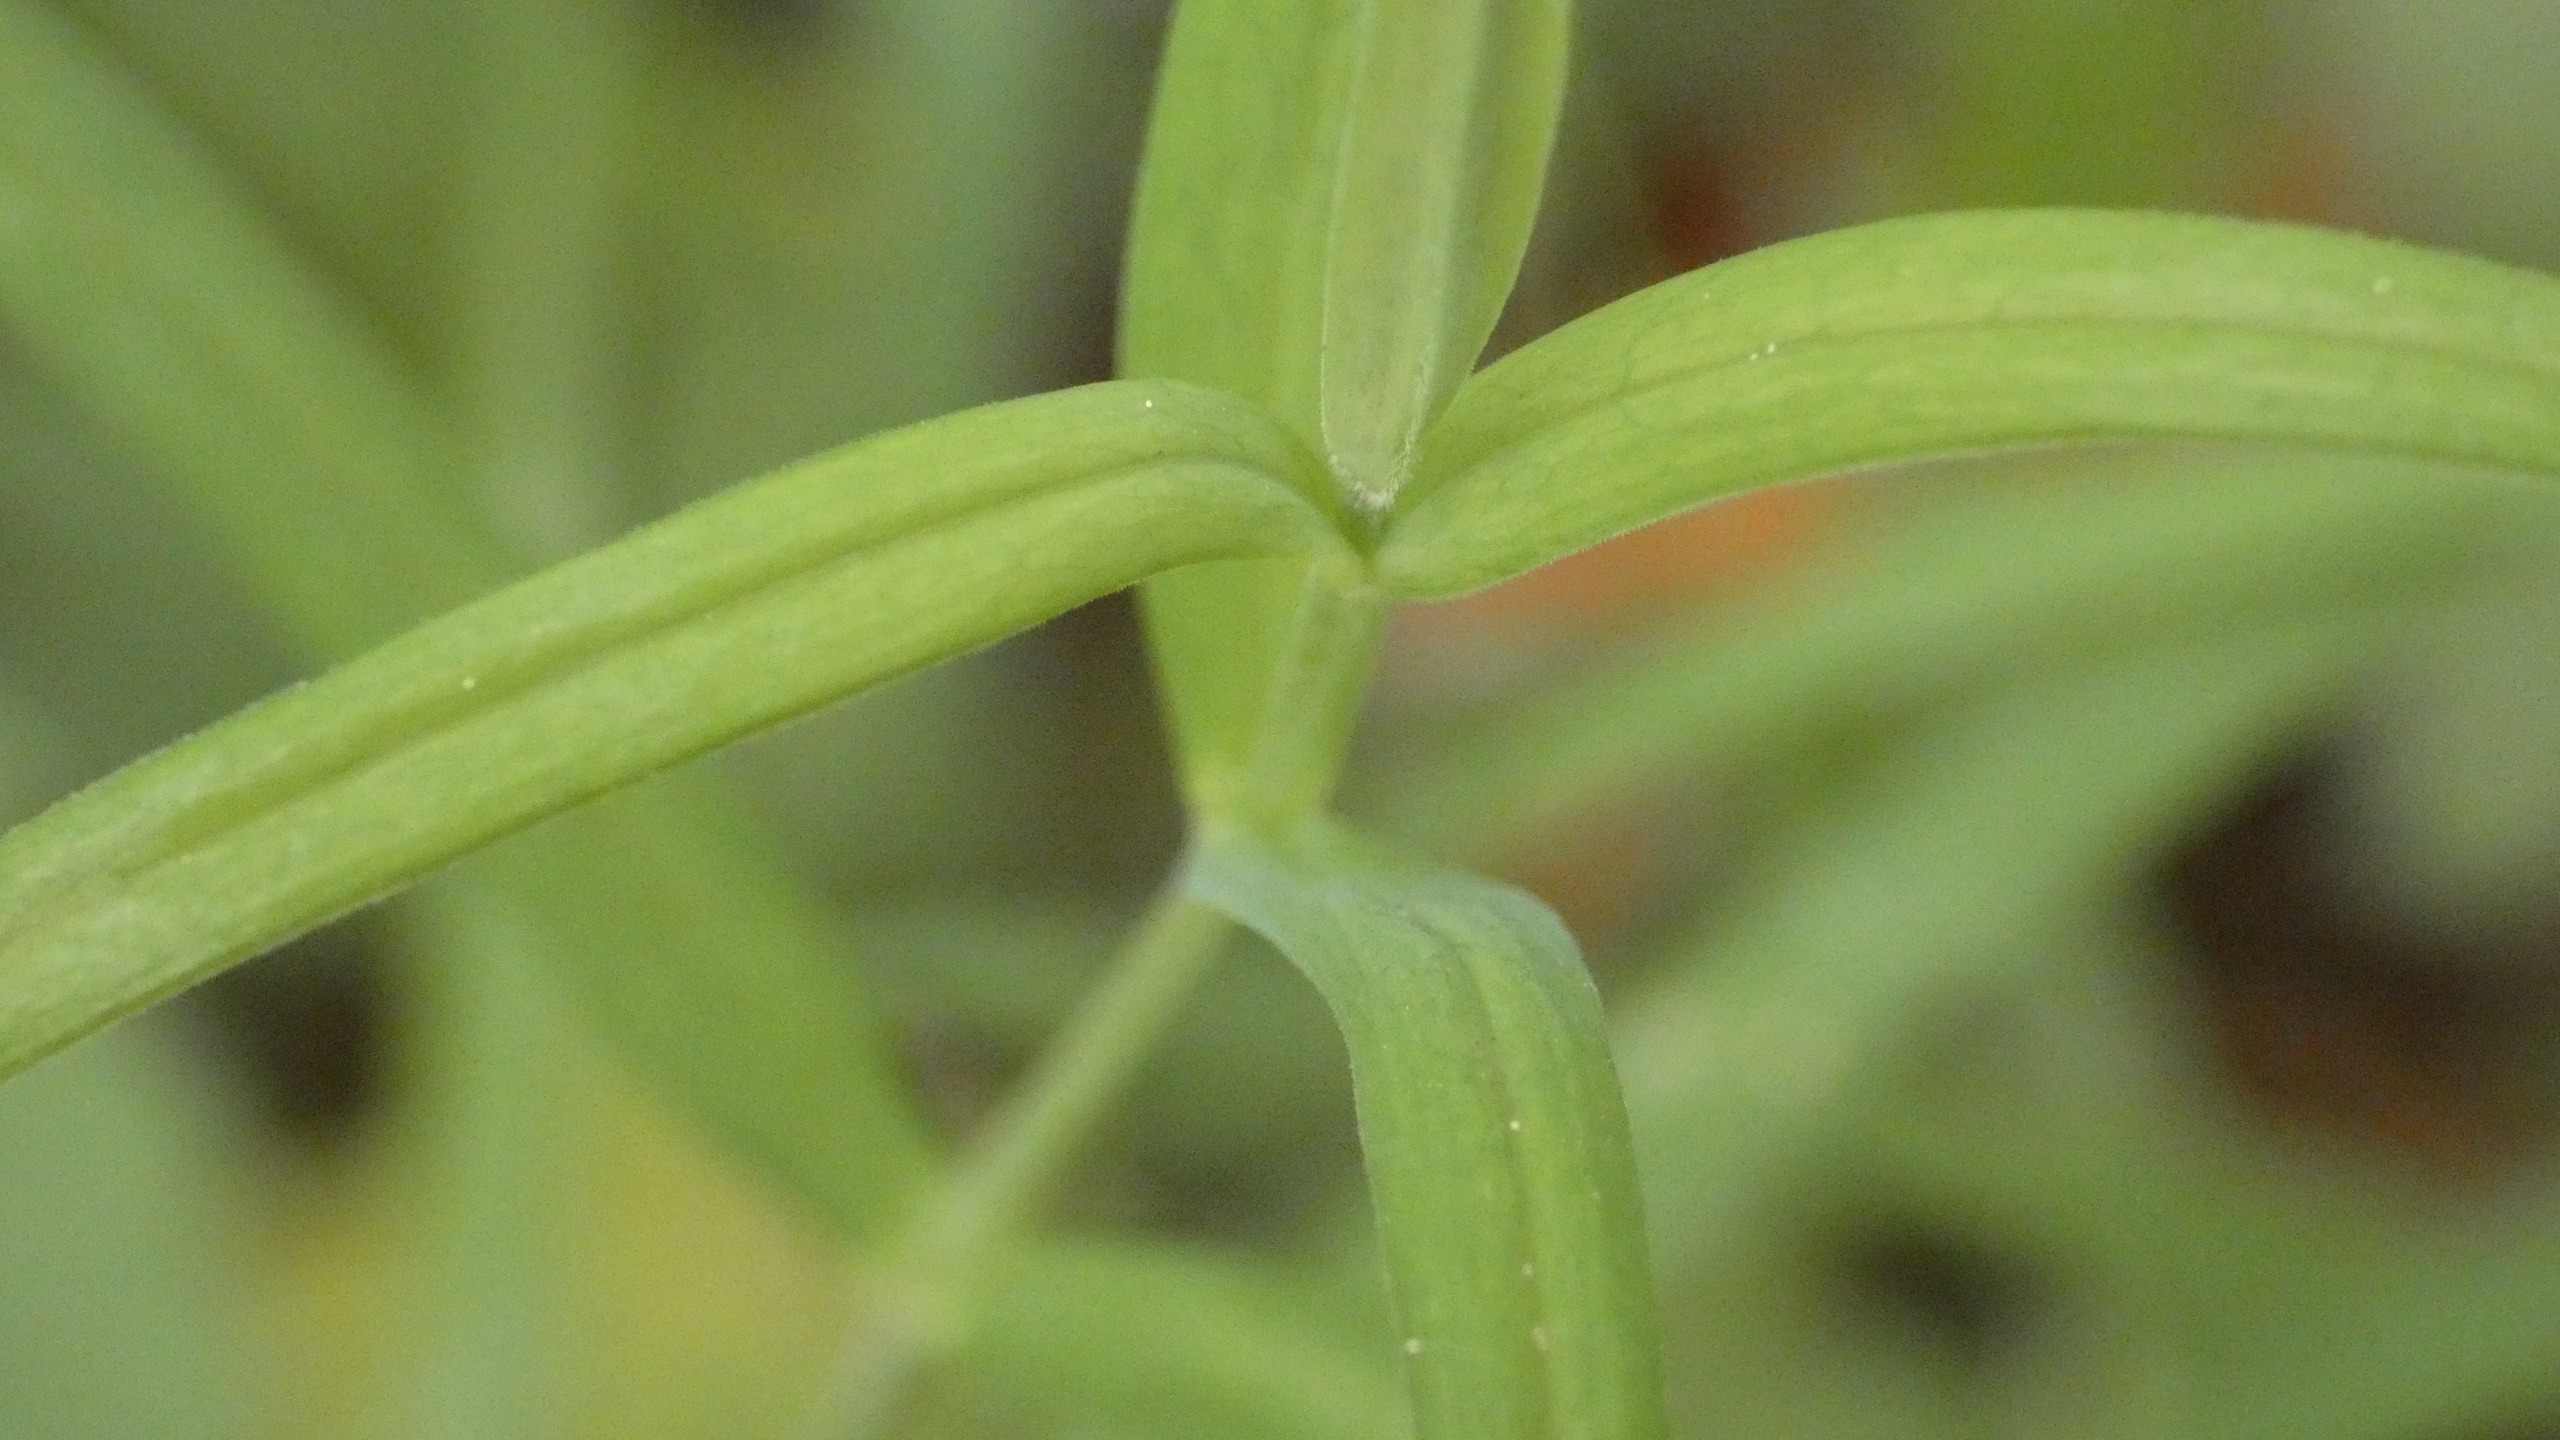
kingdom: Plantae
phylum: Tracheophyta
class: Magnoliopsida
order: Caryophyllales
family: Caryophyllaceae
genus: Rabelera
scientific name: Rabelera holostea
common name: Stor fladstjerne
